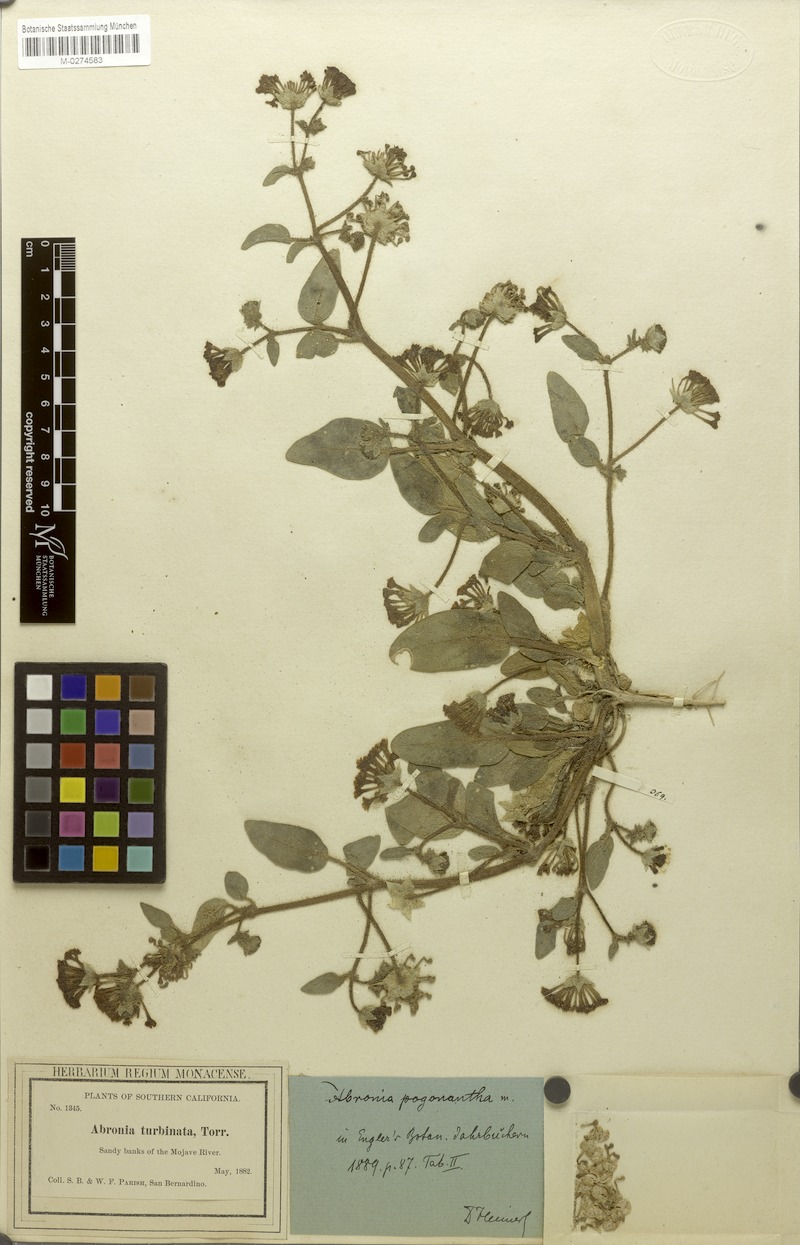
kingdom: Plantae
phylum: Tracheophyta
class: Magnoliopsida
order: Caryophyllales
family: Nyctaginaceae
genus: Abronia
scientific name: Abronia pogonantha
